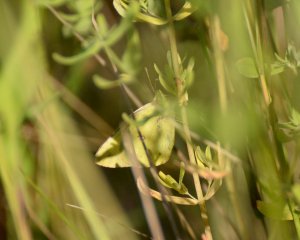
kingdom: Animalia
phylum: Arthropoda
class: Insecta
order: Lepidoptera
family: Pieridae
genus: Colias
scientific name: Colias philodice
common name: Clouded Sulphur
